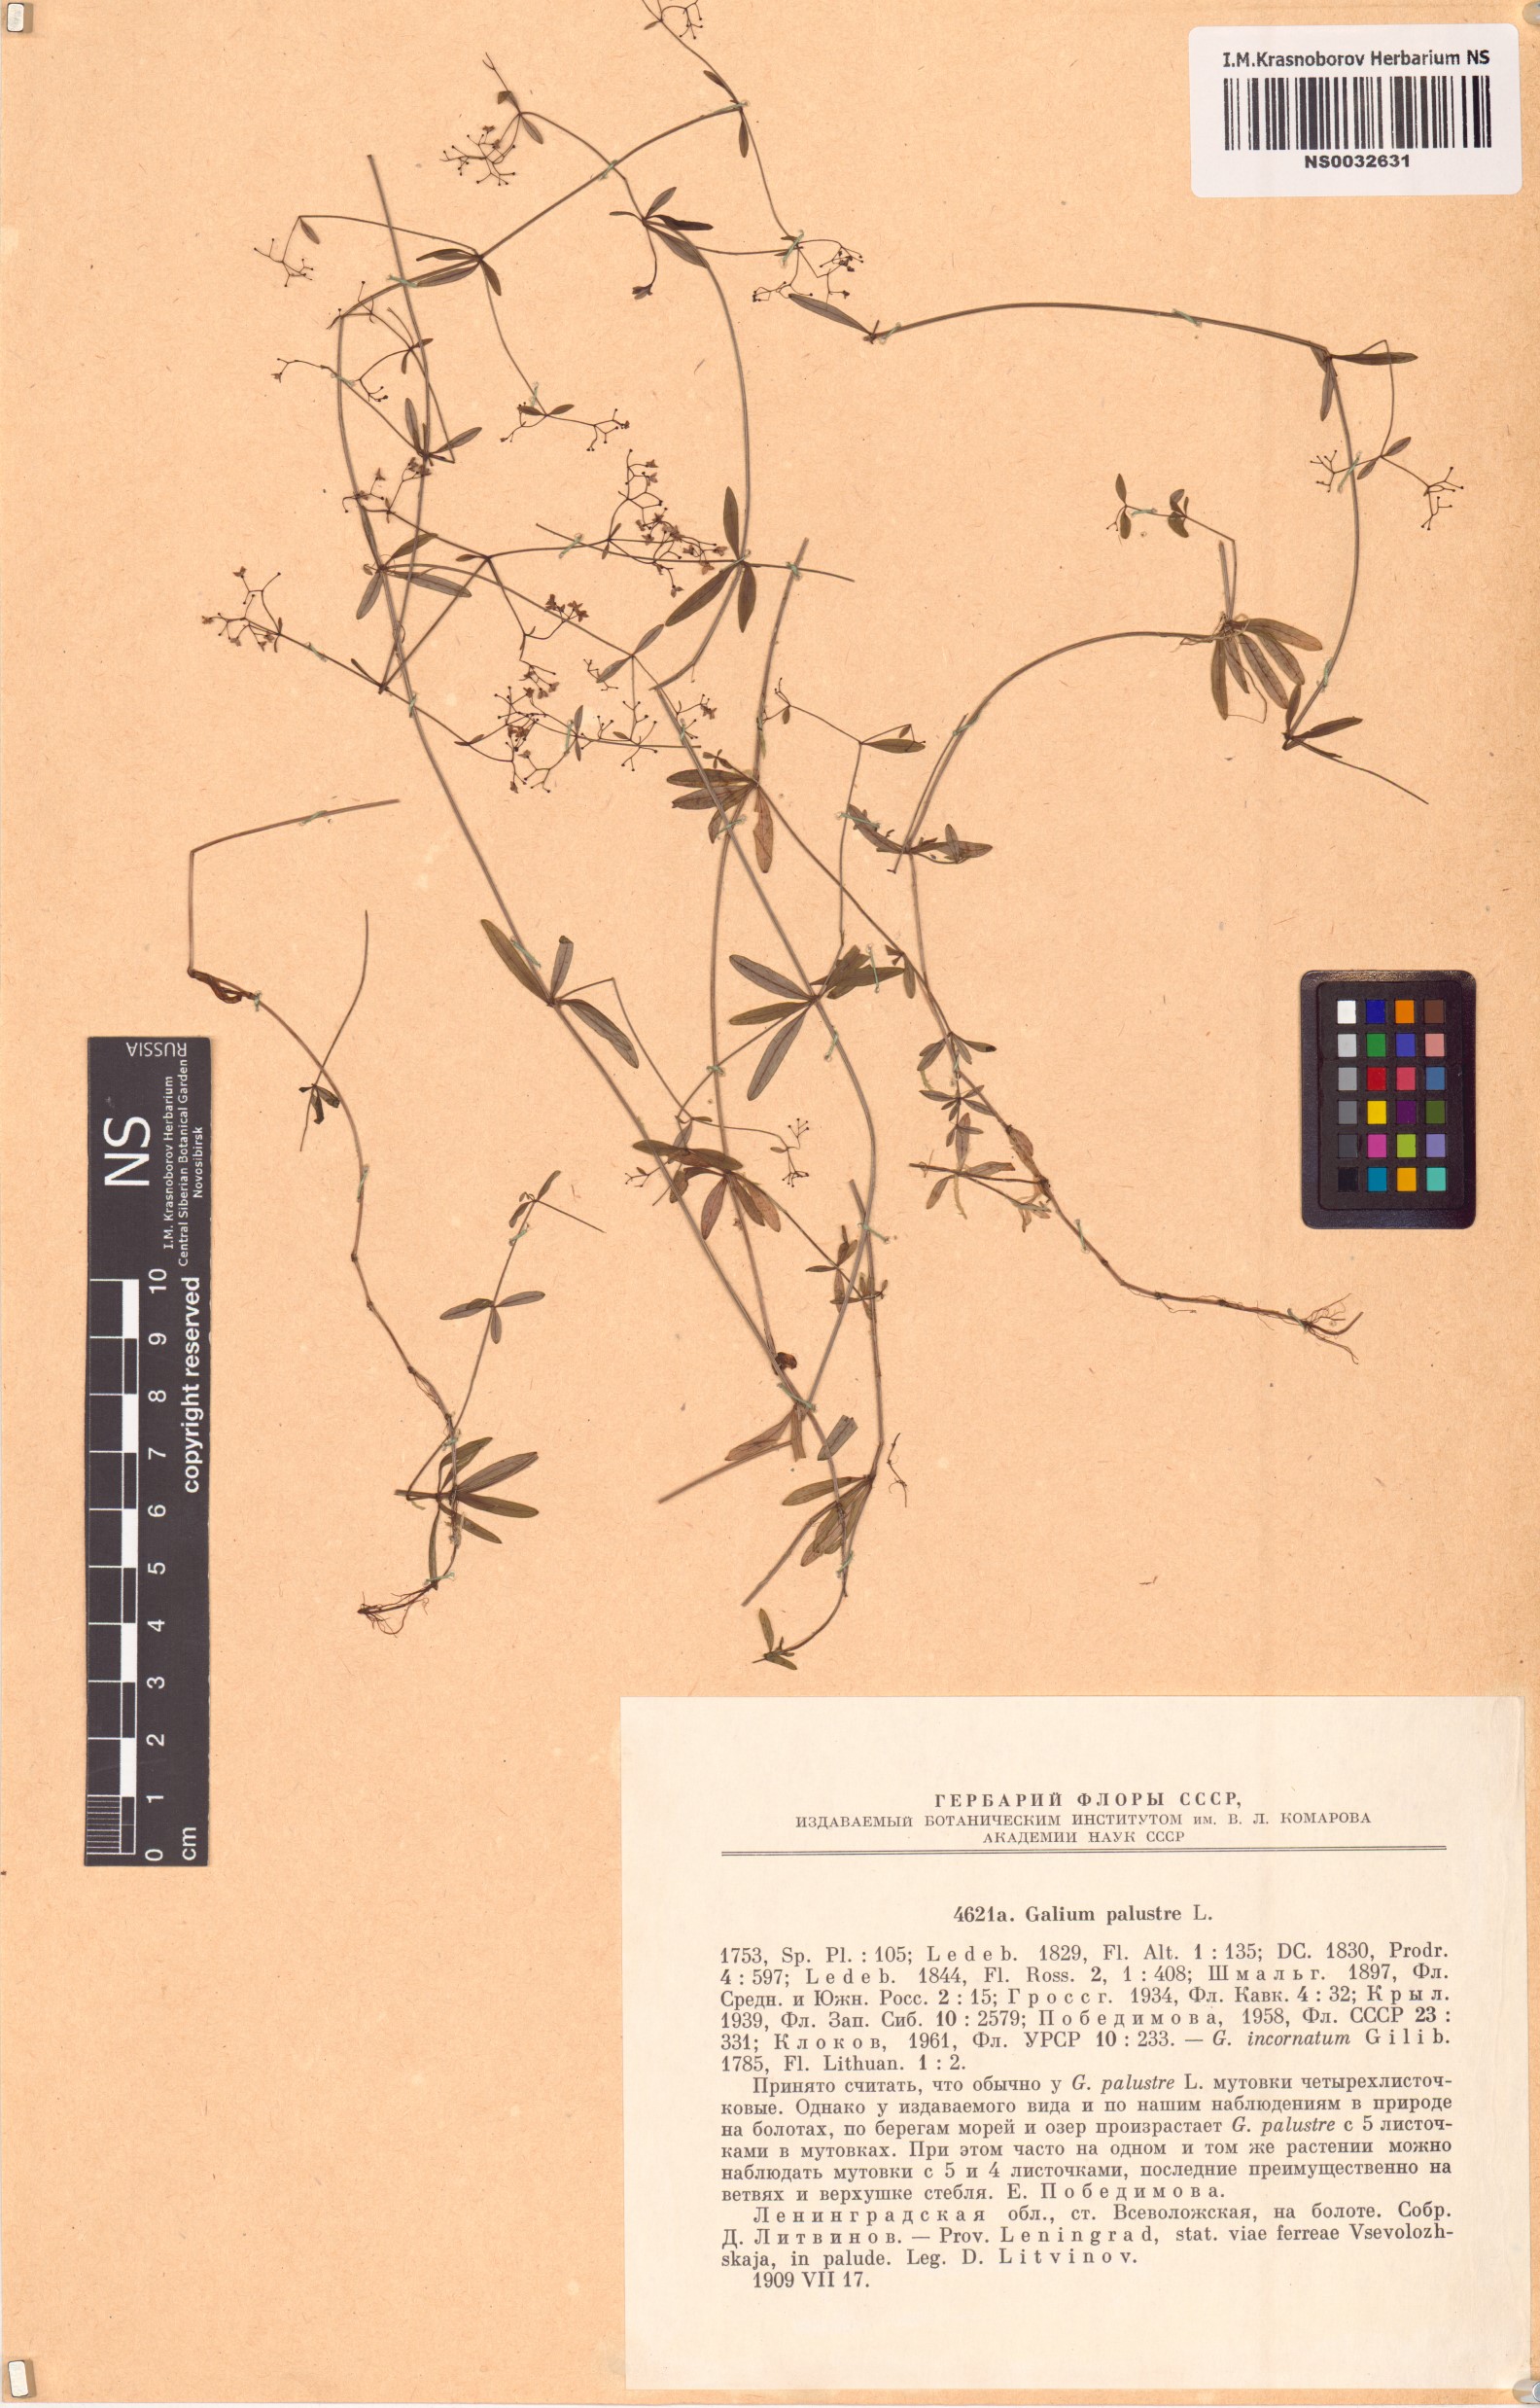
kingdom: Plantae
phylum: Tracheophyta
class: Magnoliopsida
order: Gentianales
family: Rubiaceae
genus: Galium
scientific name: Galium palustre
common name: Common marsh-bedstraw
